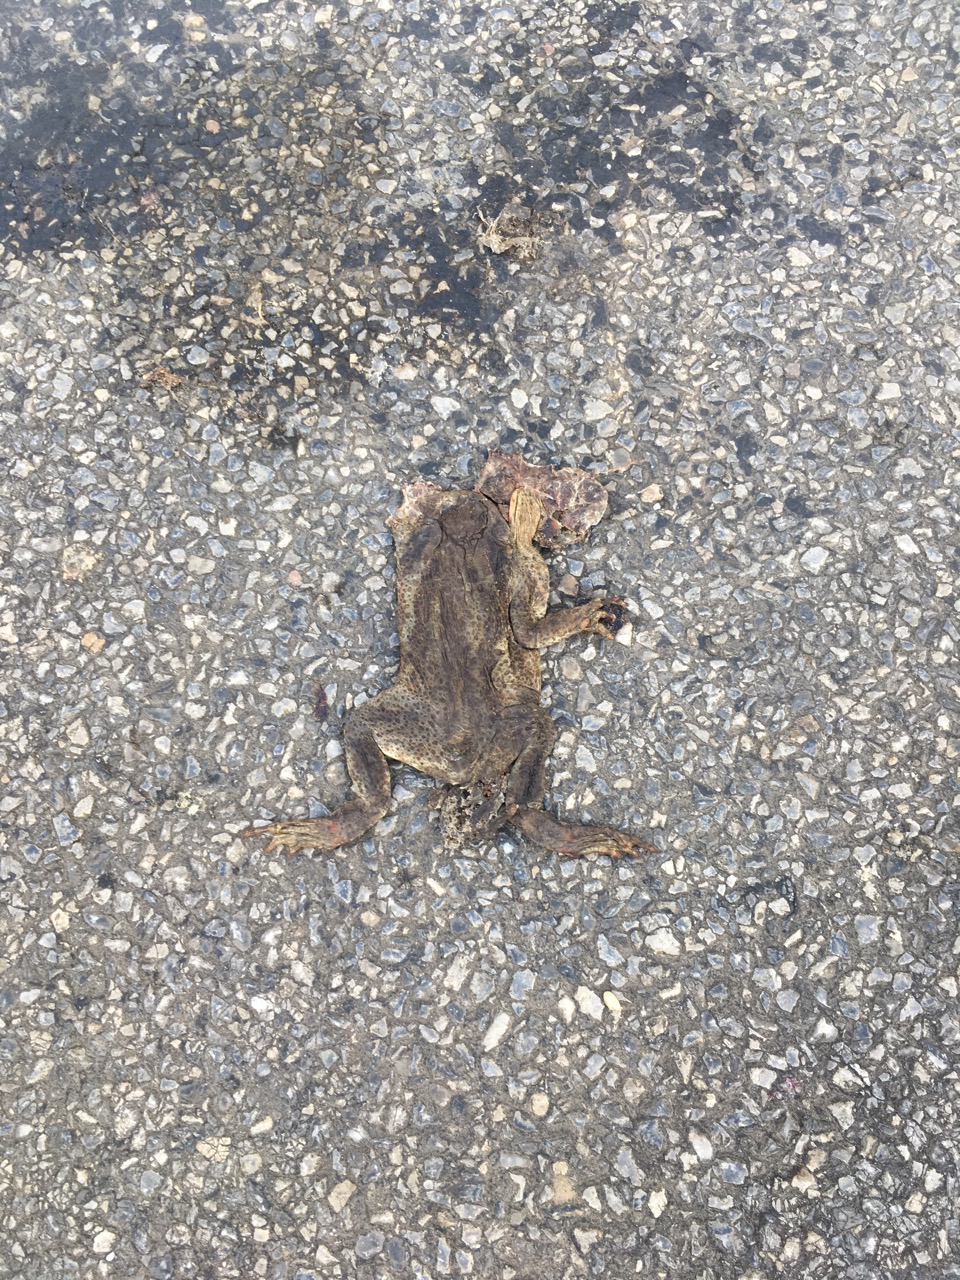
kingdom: Animalia
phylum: Chordata
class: Amphibia
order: Anura
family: Bufonidae
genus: Bufo
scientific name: Bufo bufo
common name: Common toad
